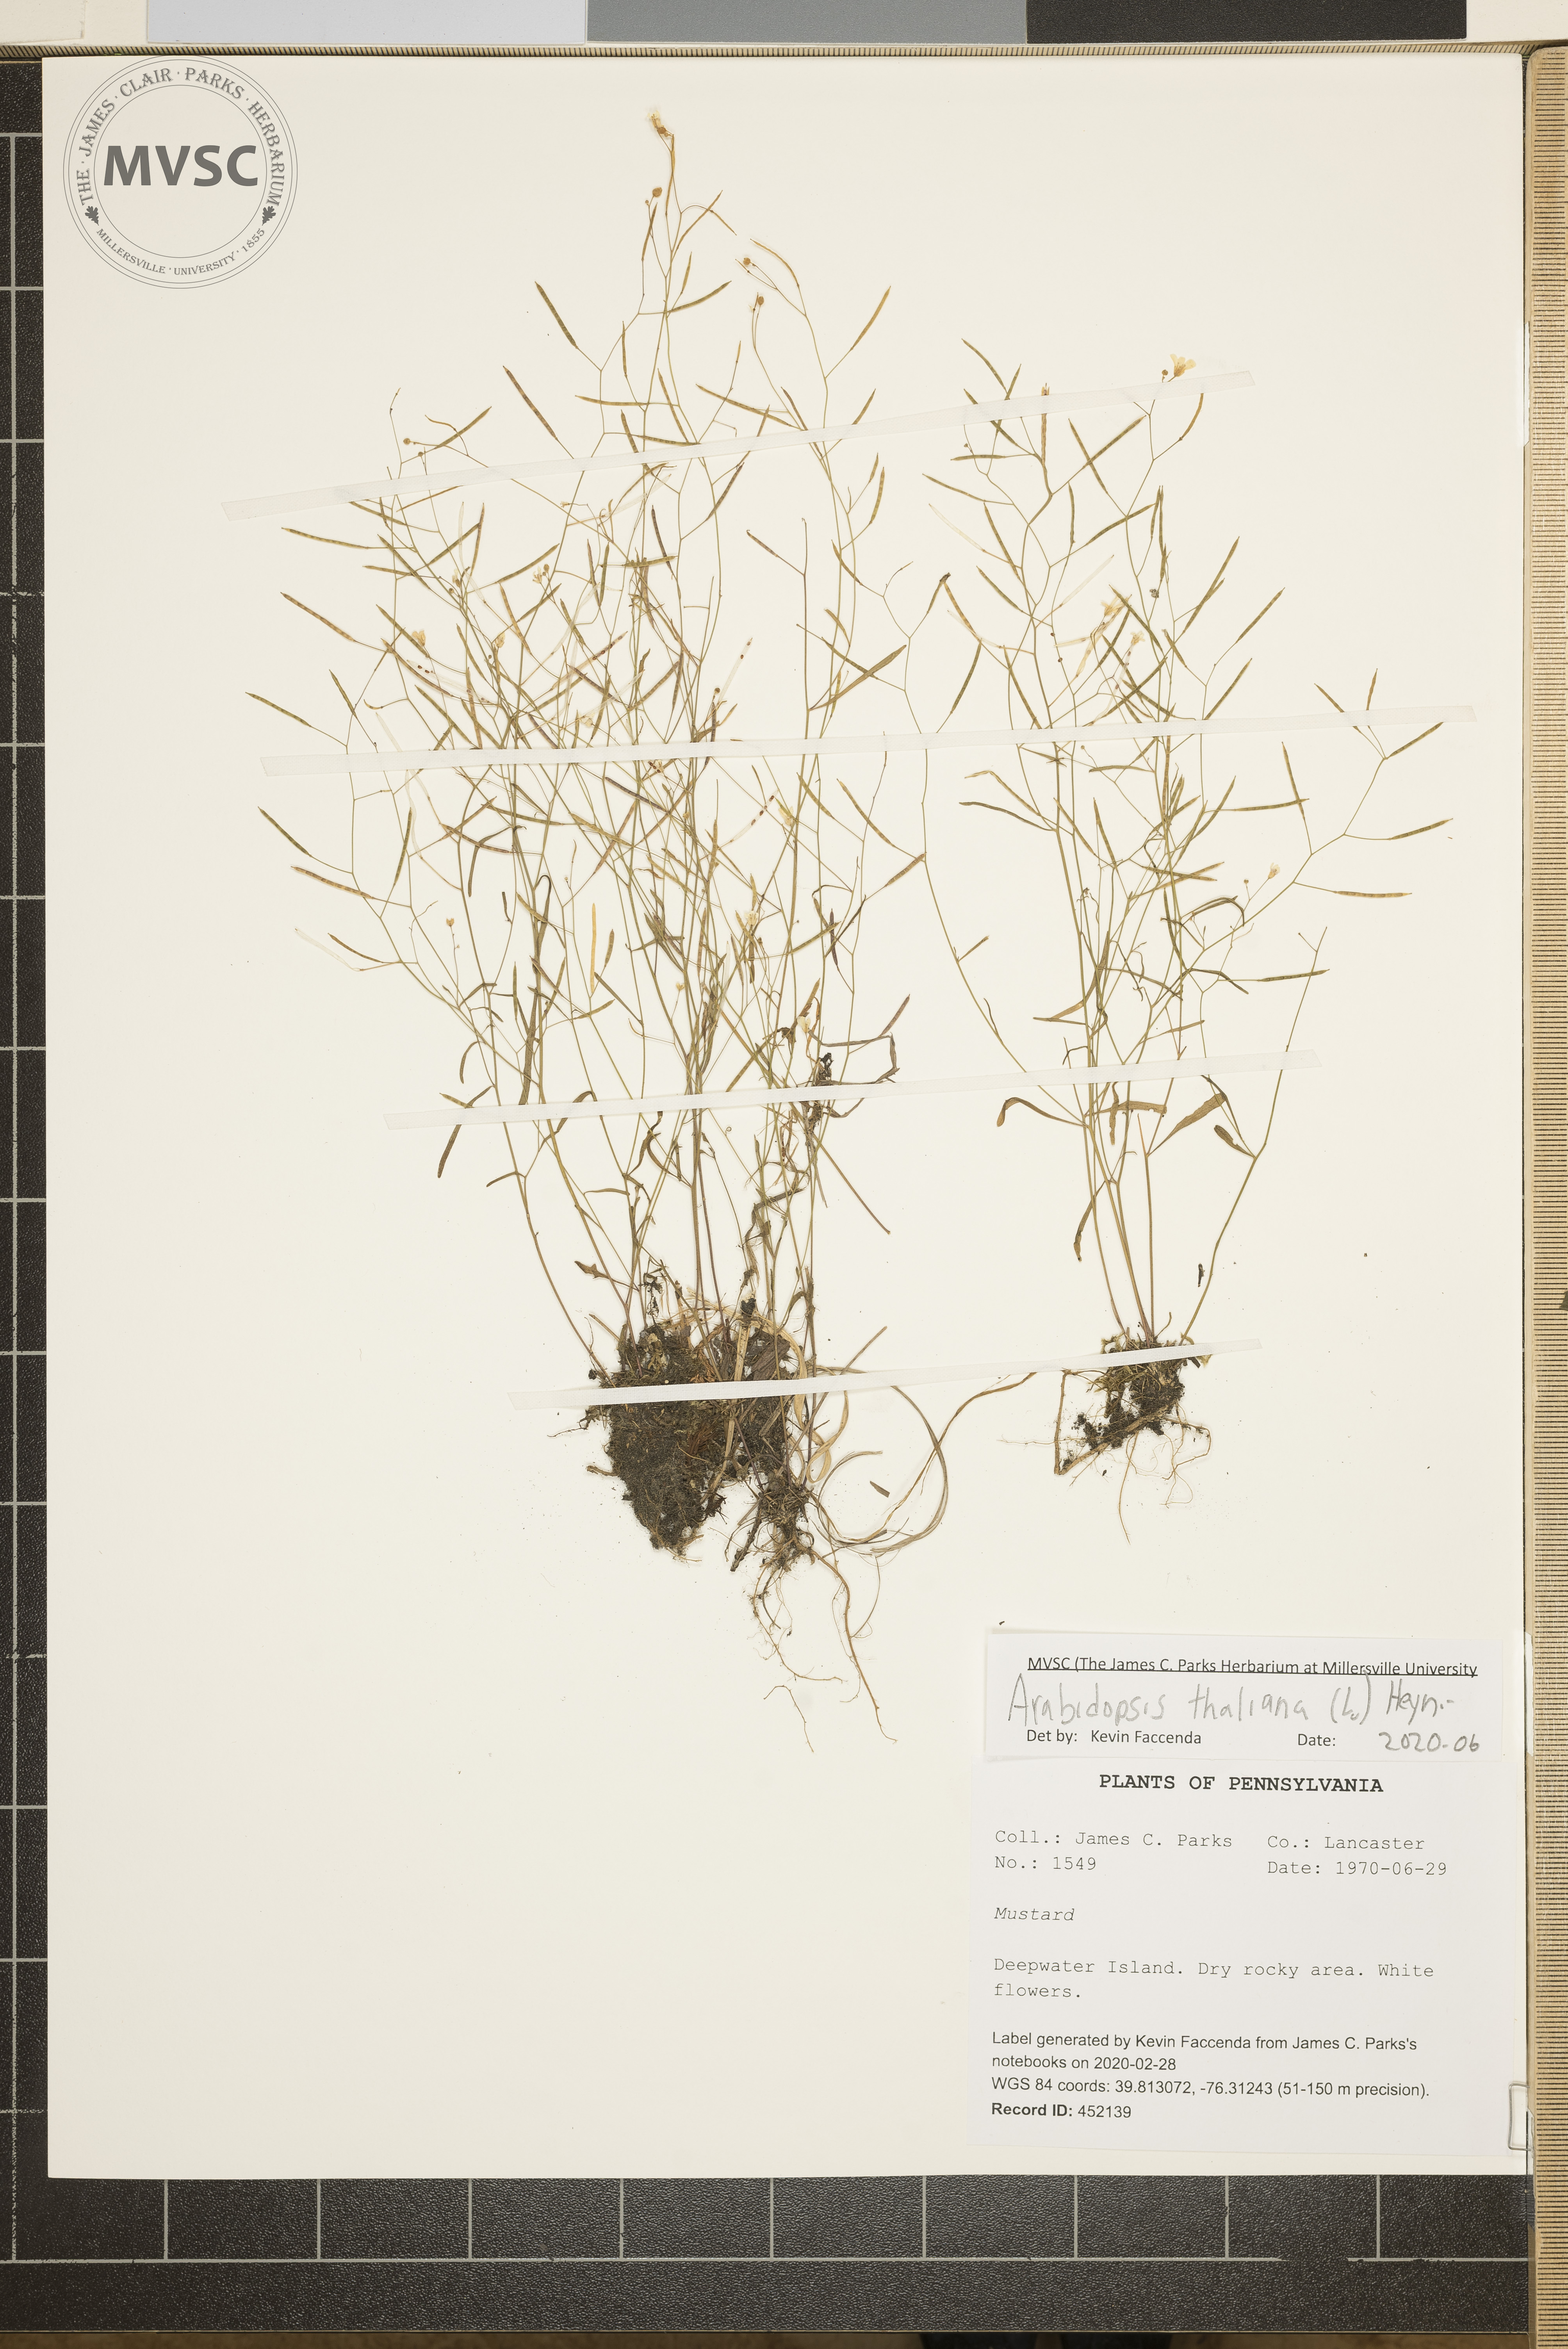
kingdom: Plantae
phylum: Tracheophyta
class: Magnoliopsida
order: Brassicales
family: Brassicaceae
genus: Arabidopsis
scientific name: Arabidopsis thaliana
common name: Thale cress
